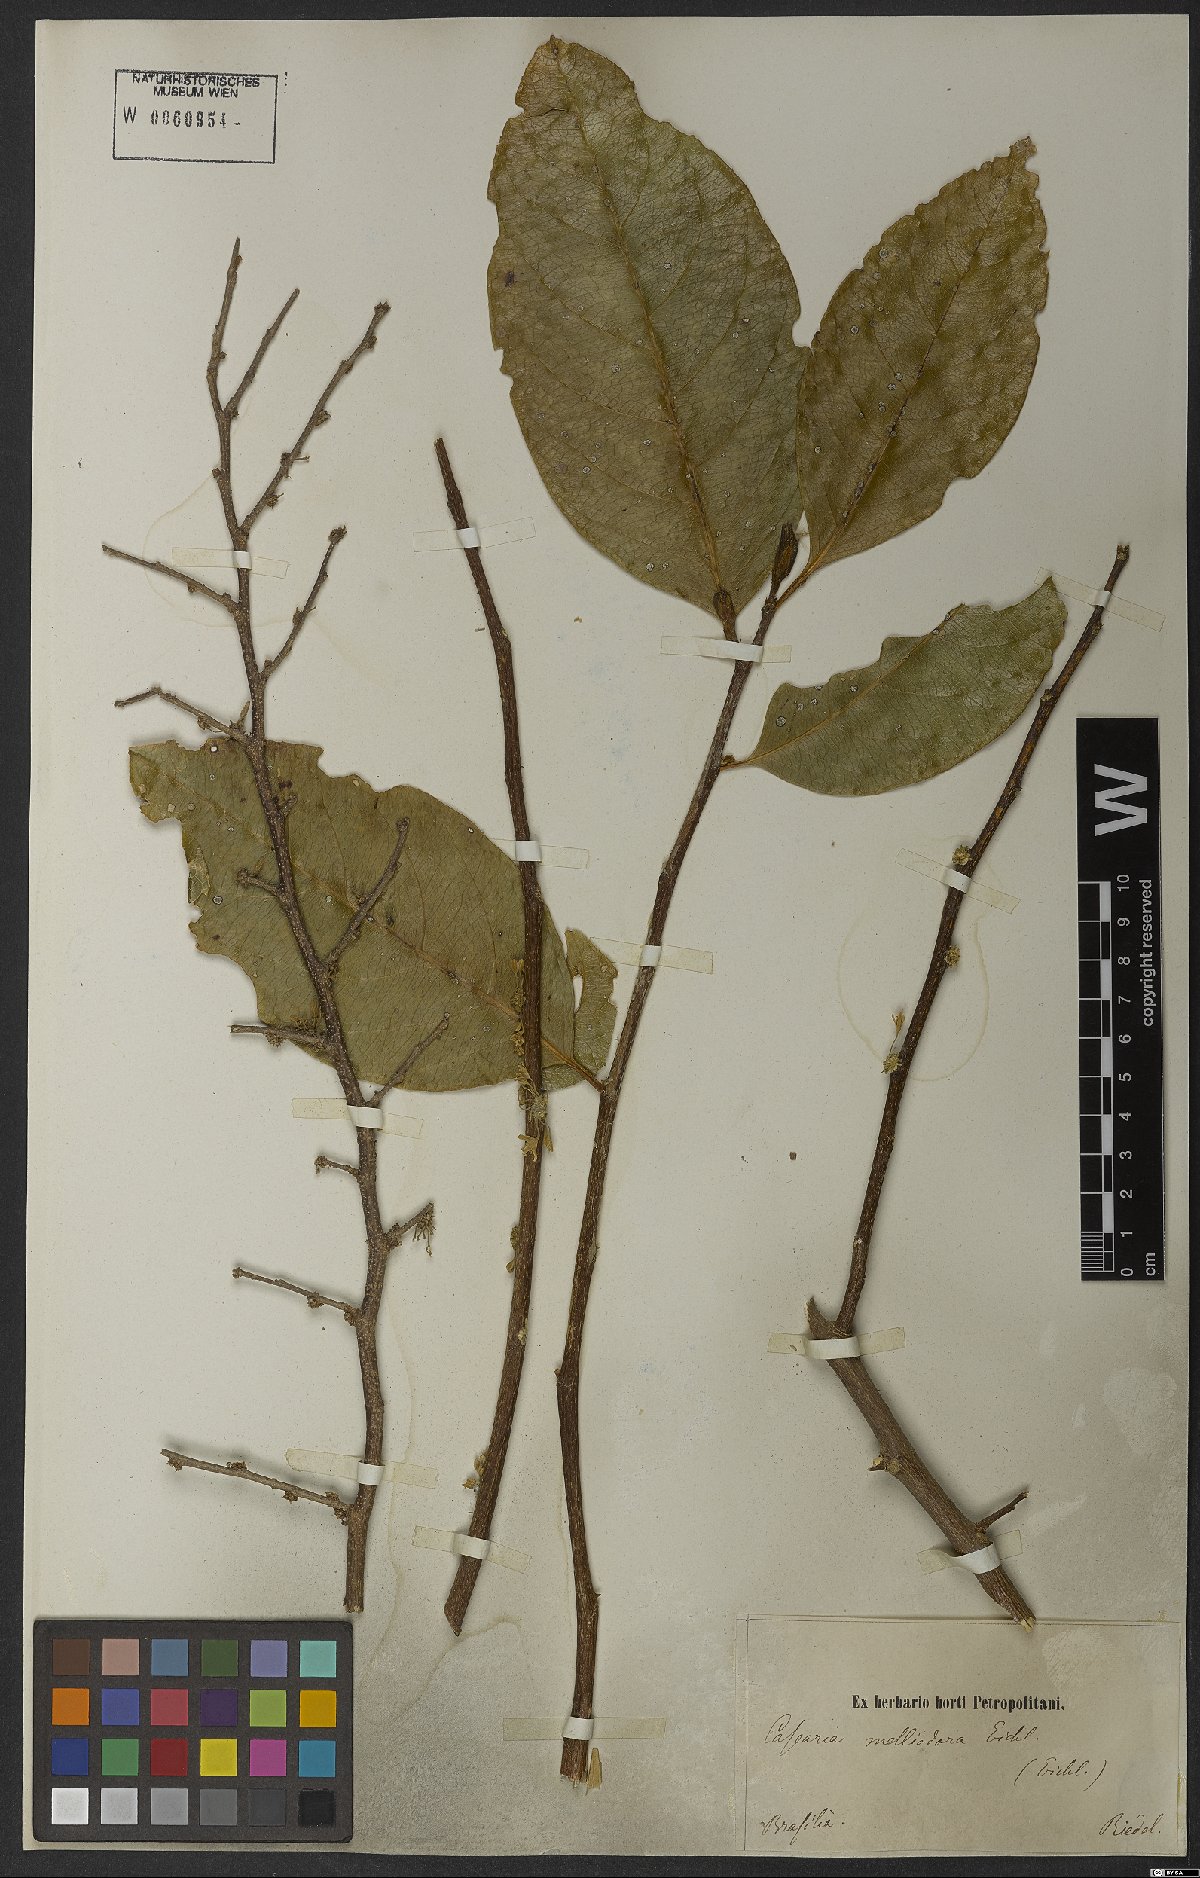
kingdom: Plantae
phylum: Tracheophyta
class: Magnoliopsida
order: Malpighiales
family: Salicaceae
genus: Casearia
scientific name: Casearia melliodora
